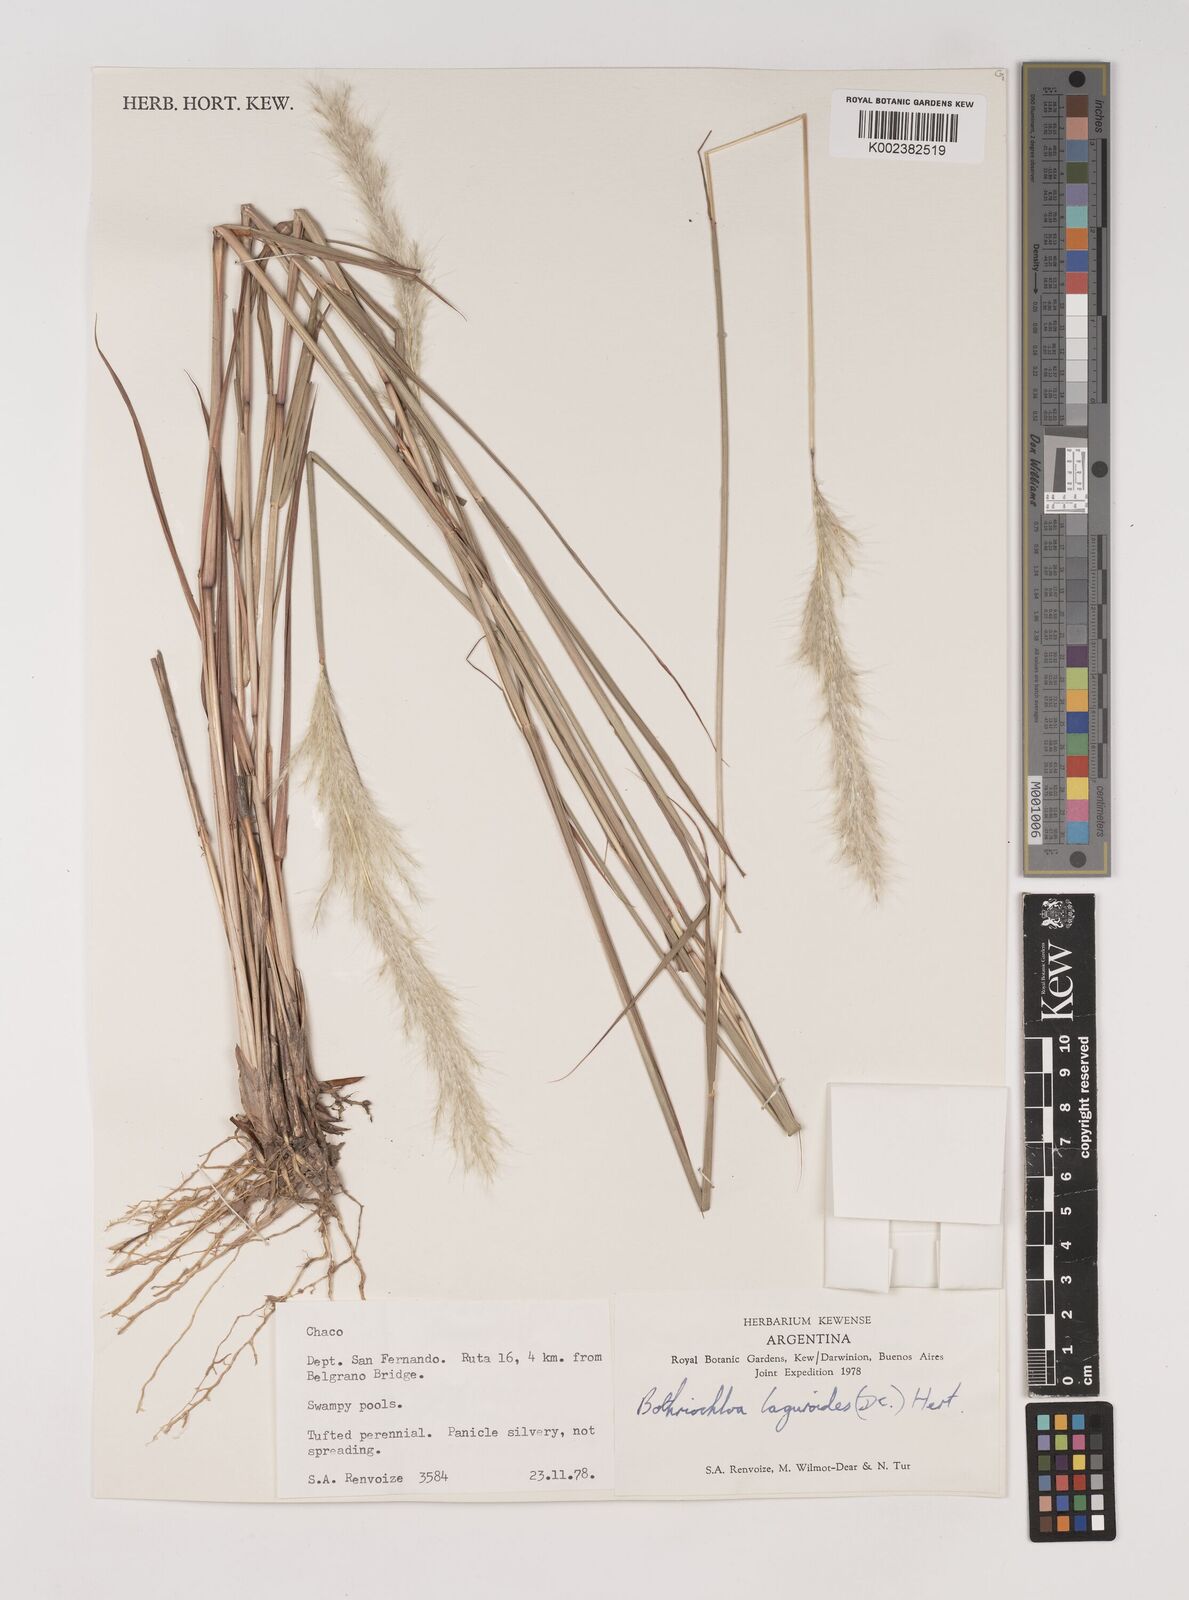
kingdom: Plantae
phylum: Tracheophyta
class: Liliopsida
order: Poales
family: Poaceae
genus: Bothriochloa
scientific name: Bothriochloa longipaniculata
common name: Longspike silver bluestem
